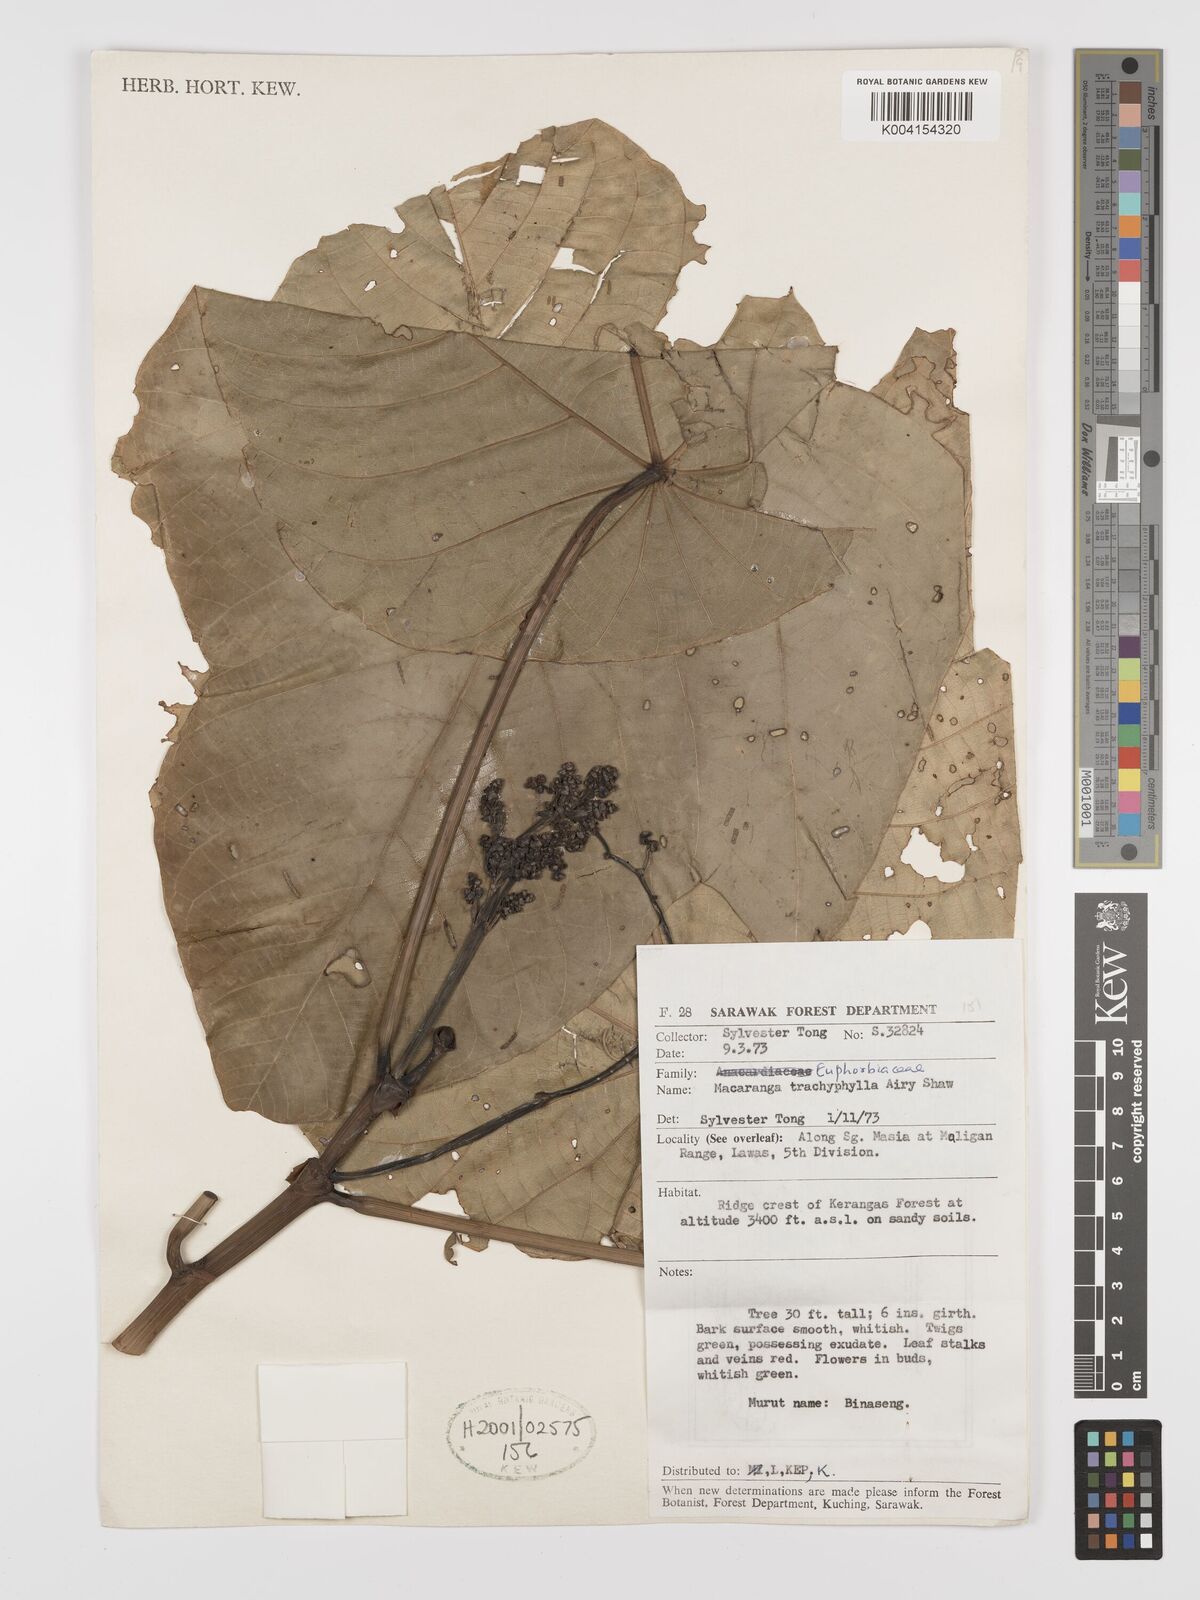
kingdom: Plantae
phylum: Tracheophyta
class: Magnoliopsida
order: Malpighiales
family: Euphorbiaceae
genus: Macaranga
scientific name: Macaranga trachyphylla
